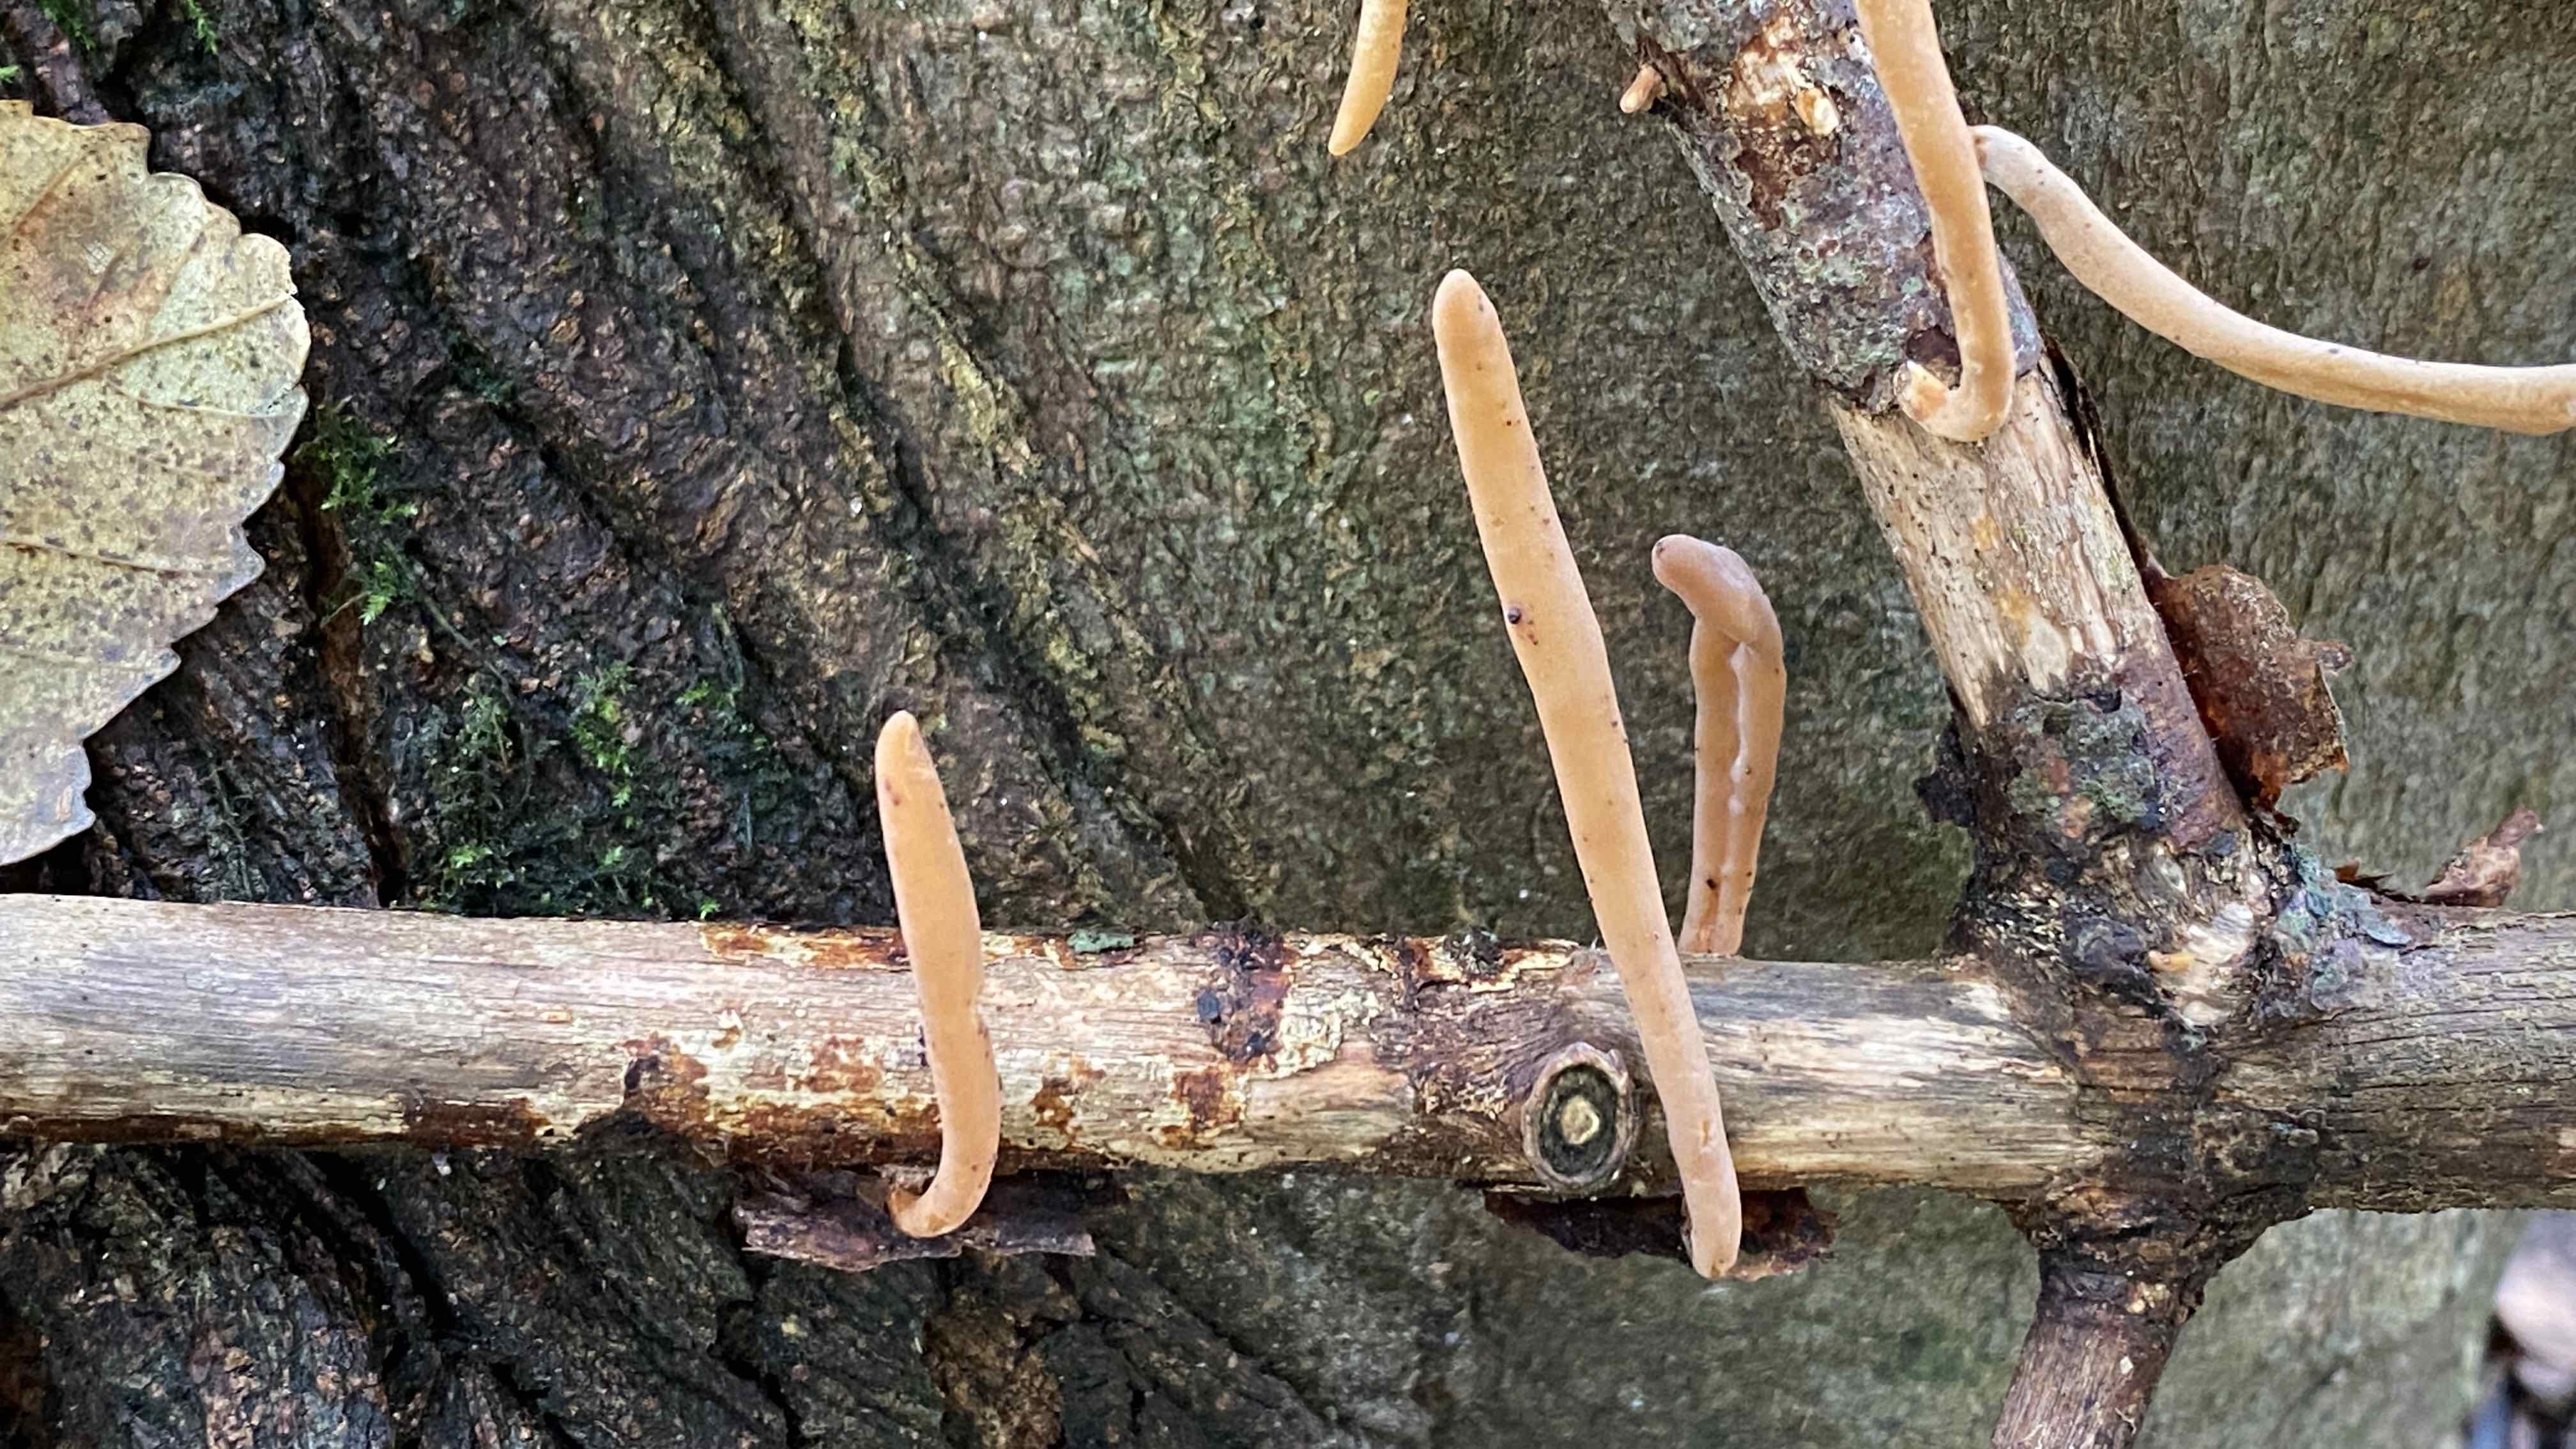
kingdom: Fungi
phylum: Basidiomycota
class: Agaricomycetes
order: Agaricales
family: Typhulaceae
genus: Typhula
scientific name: Typhula fistulosa
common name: pibet rørkølle
